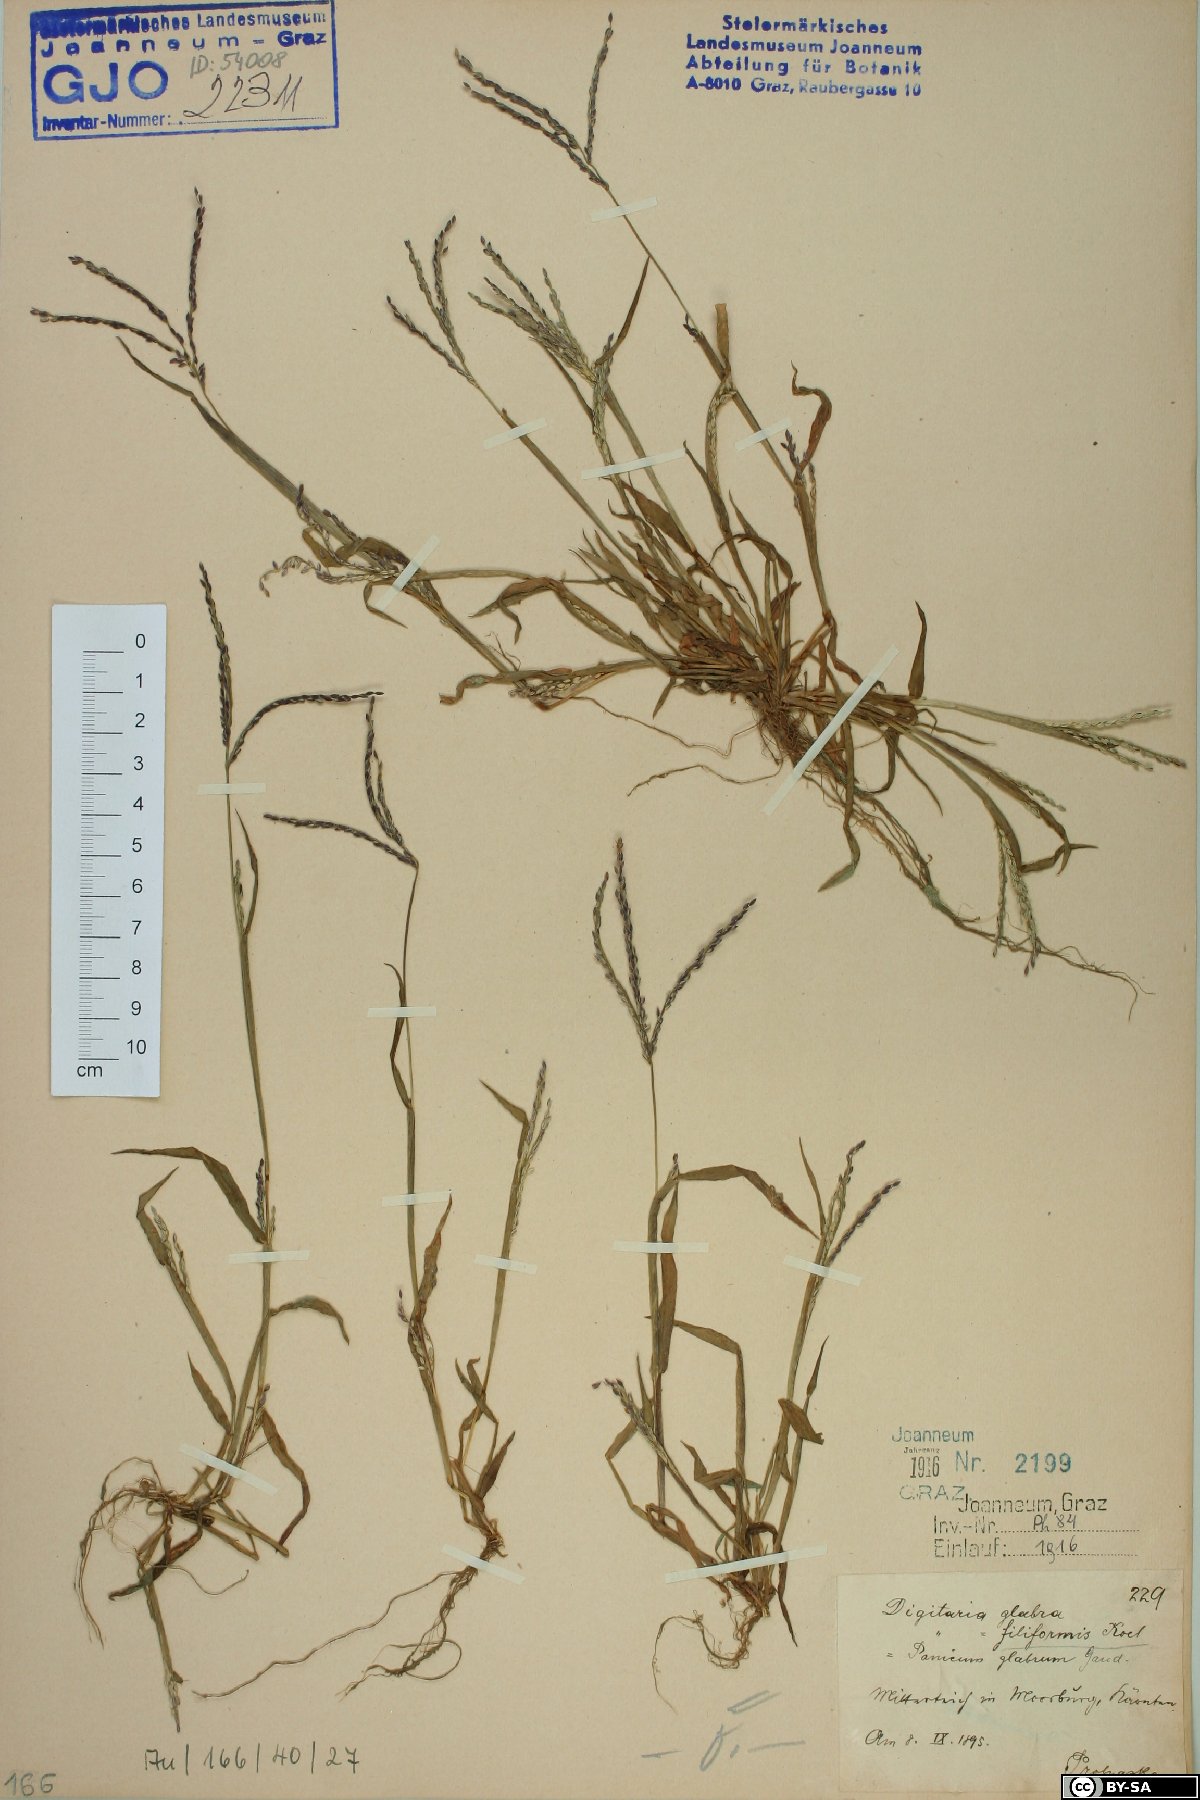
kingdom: Plantae
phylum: Tracheophyta
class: Liliopsida
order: Poales
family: Poaceae
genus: Digitaria
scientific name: Digitaria ischaemum
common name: Smooth crabgrass
